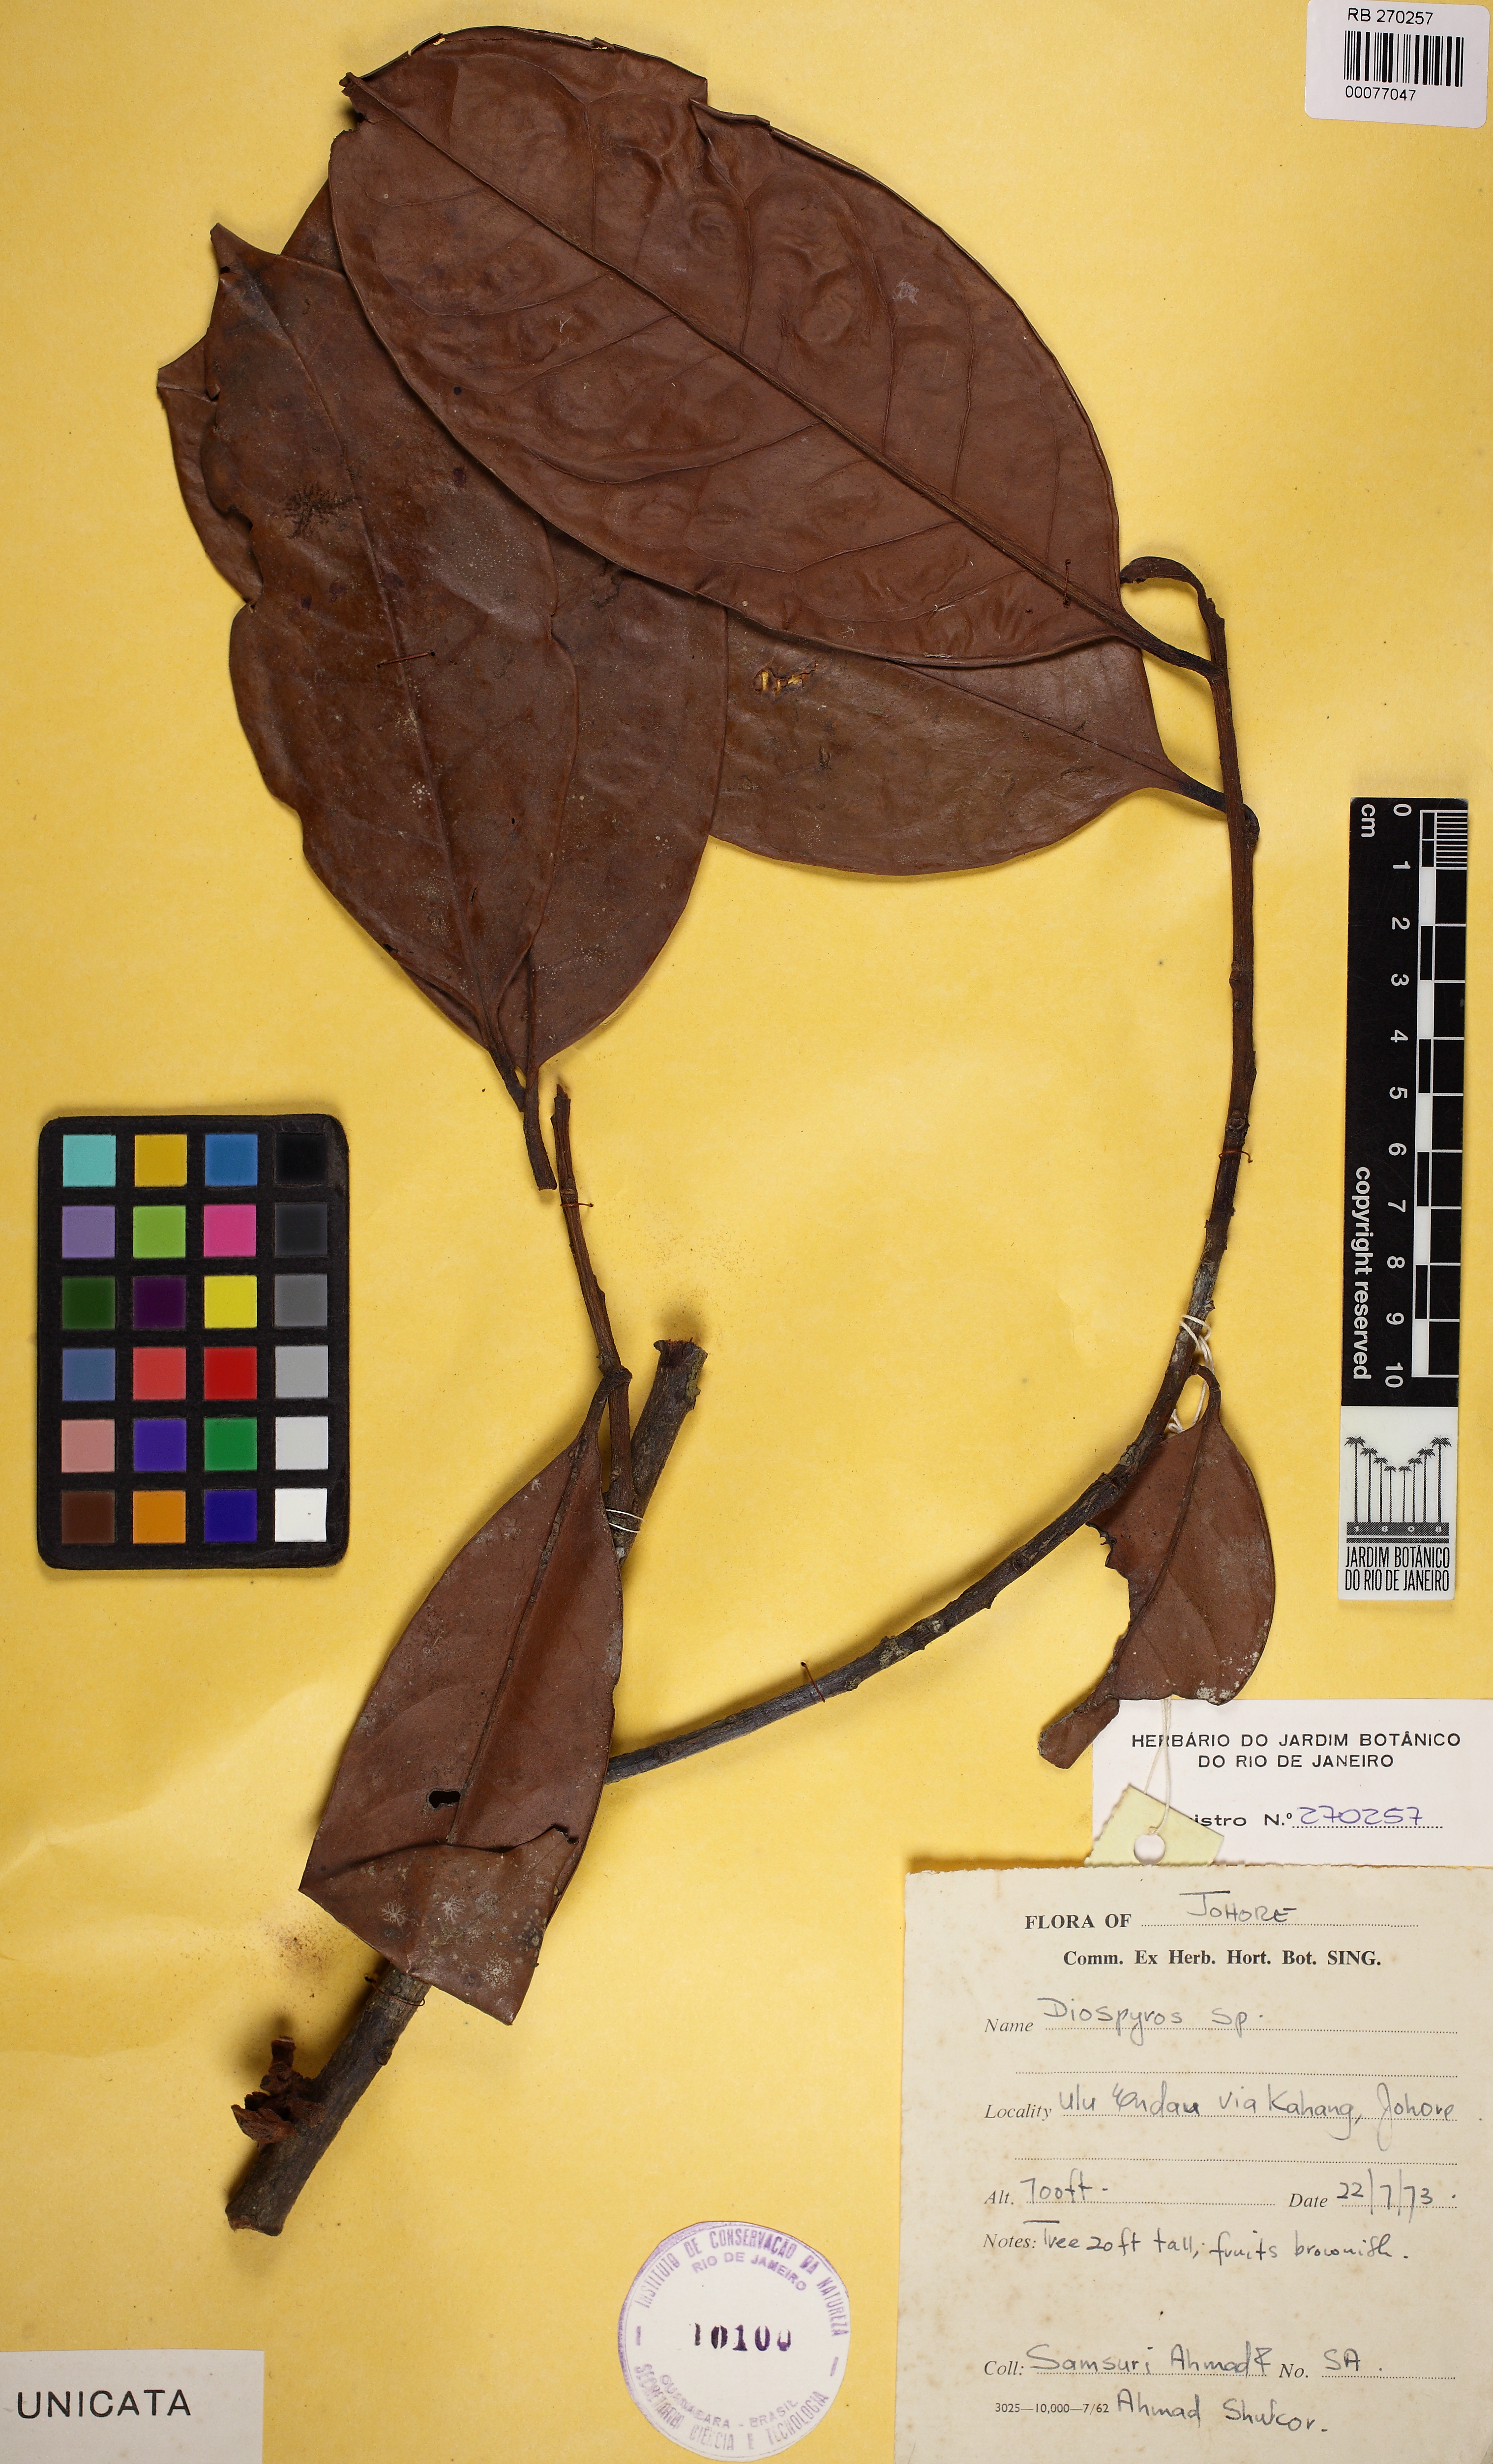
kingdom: Plantae
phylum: Tracheophyta
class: Magnoliopsida
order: Ericales
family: Ebenaceae
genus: Diospyros
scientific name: Diospyros
